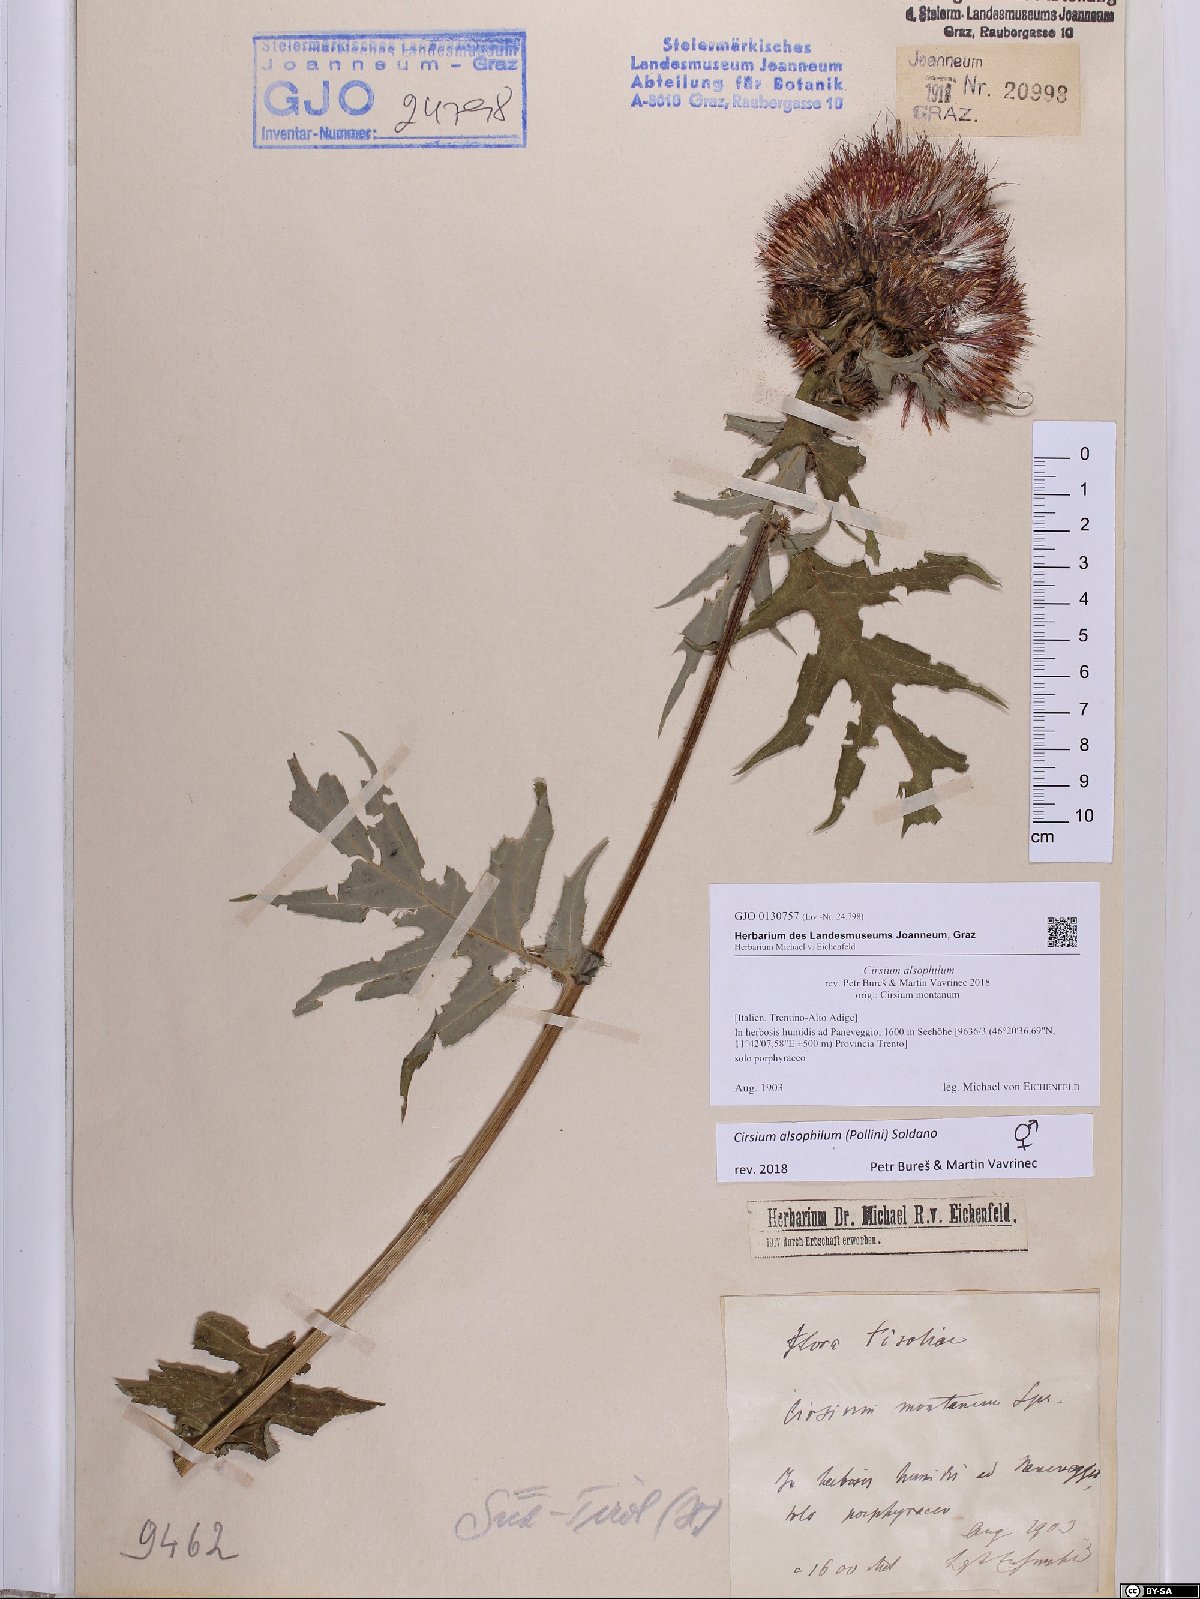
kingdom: Plantae
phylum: Tracheophyta
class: Magnoliopsida
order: Asterales
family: Asteraceae
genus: Cirsium
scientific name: Cirsium alsophilum
